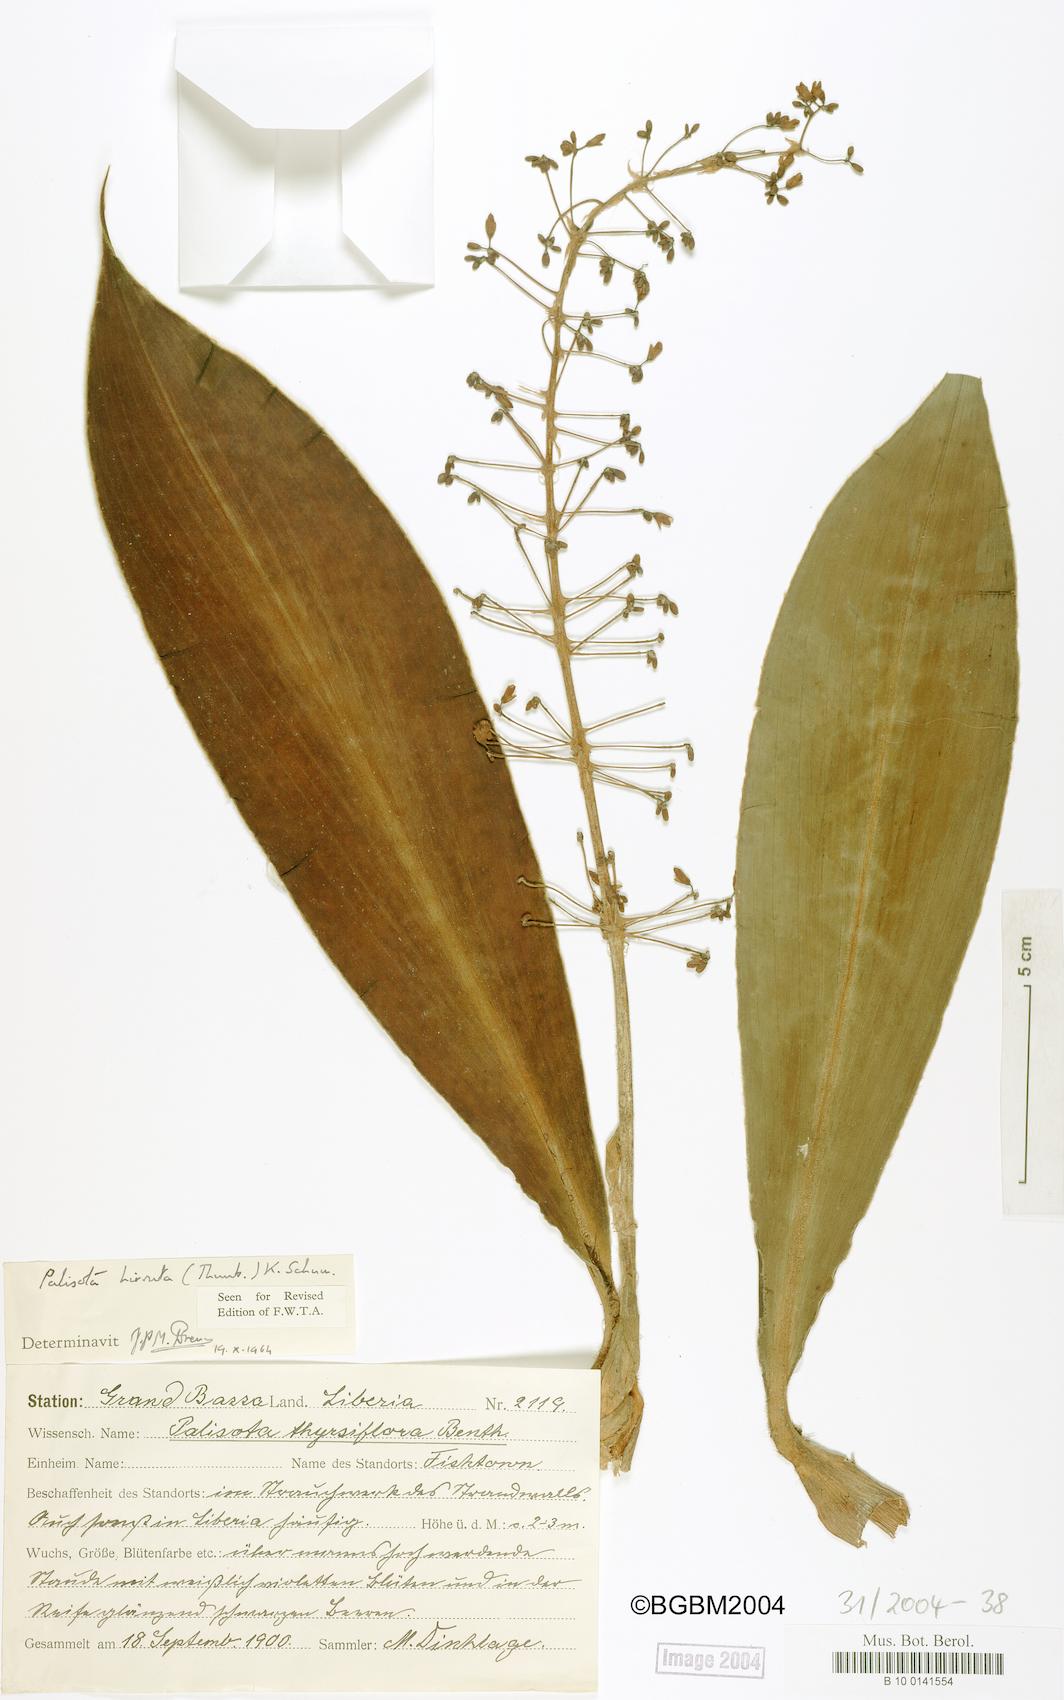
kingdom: Plantae
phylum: Tracheophyta
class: Liliopsida
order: Commelinales
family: Commelinaceae
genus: Palisota
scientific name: Palisota hirsuta
